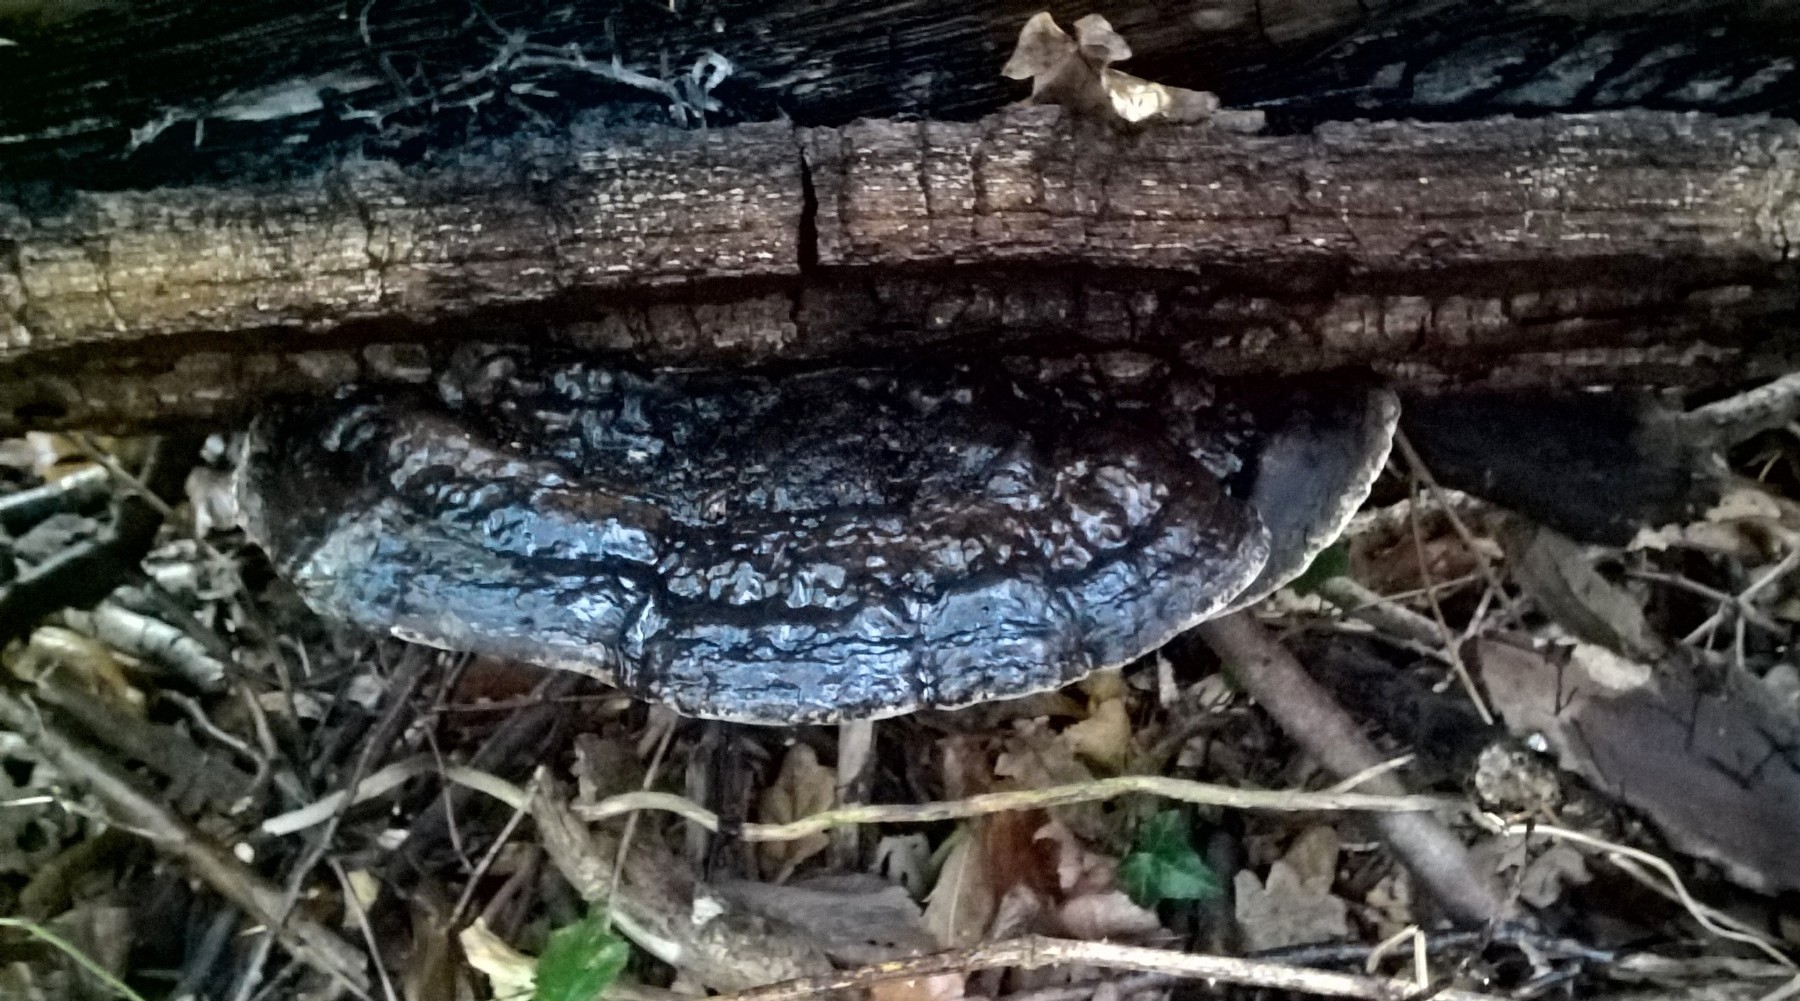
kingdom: Fungi
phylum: Basidiomycota
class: Agaricomycetes
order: Polyporales
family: Polyporaceae
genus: Ganoderma
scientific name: Ganoderma applanatum
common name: flad lakporesvamp
